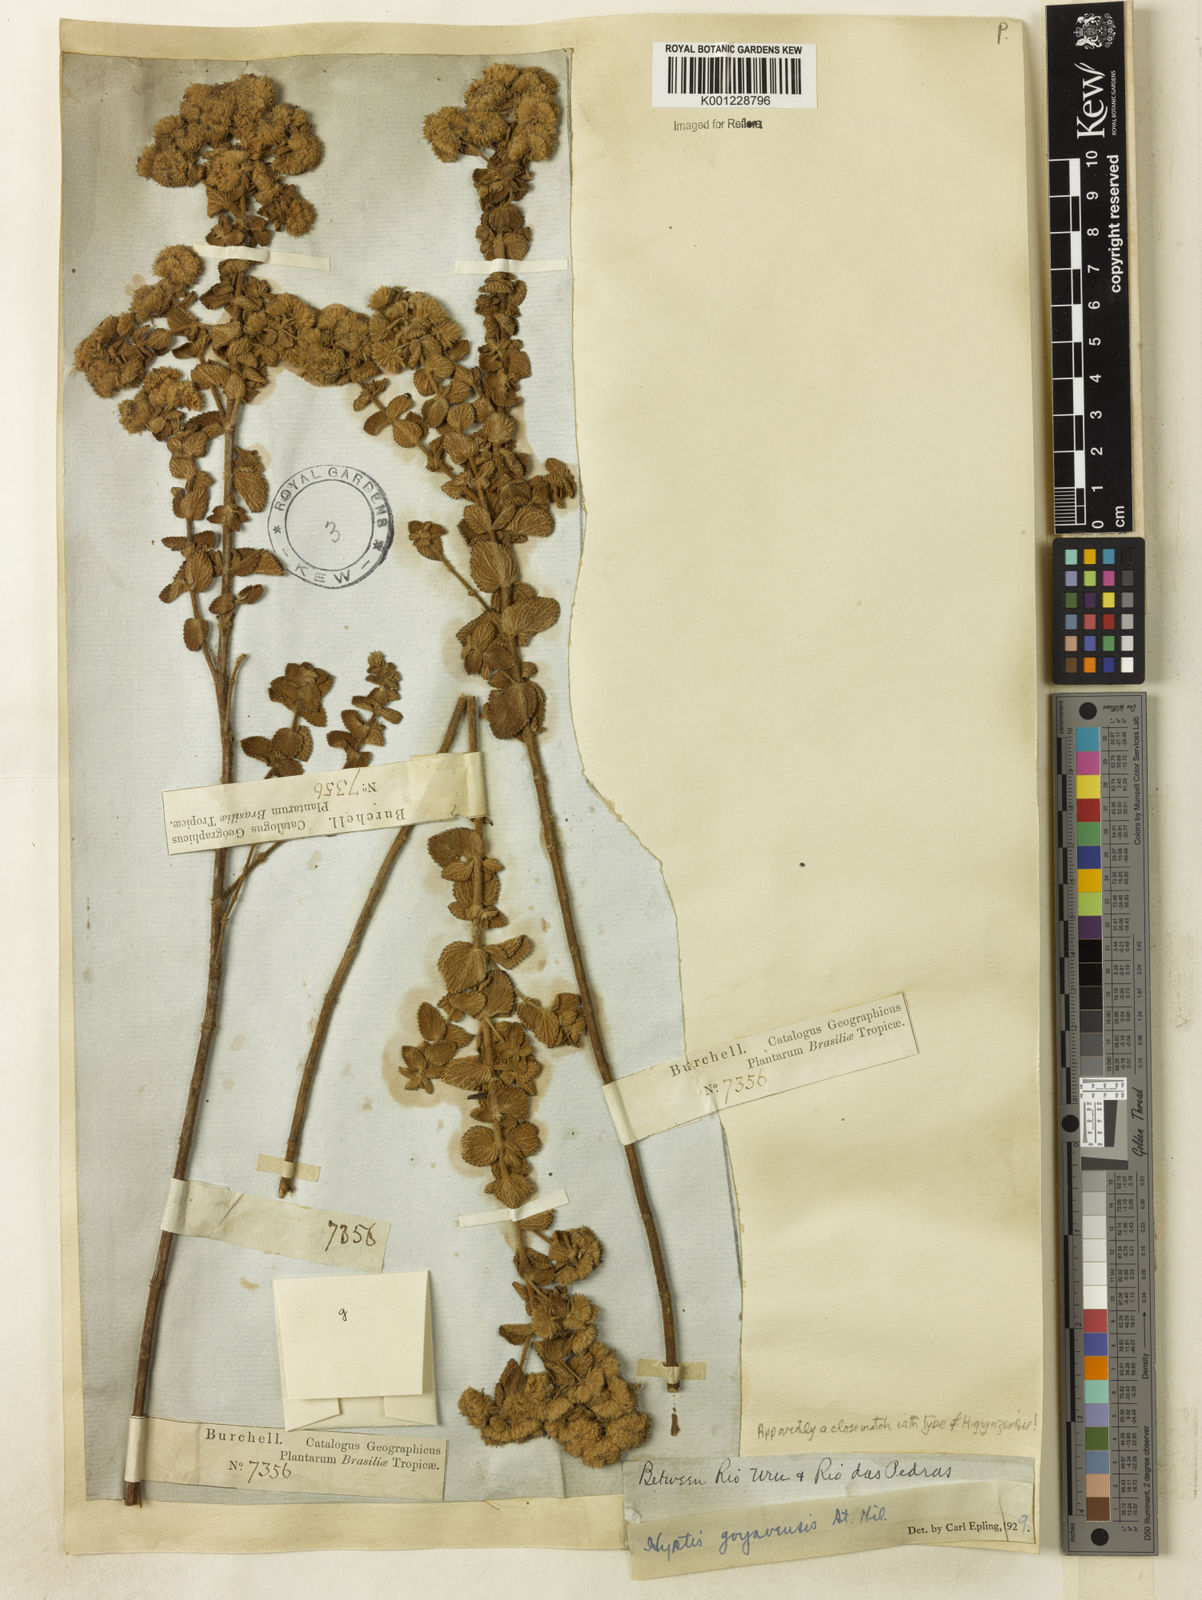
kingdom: Plantae
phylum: Tracheophyta
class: Magnoliopsida
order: Lamiales
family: Lamiaceae
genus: Hyptis
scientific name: Hyptis goyazensis
